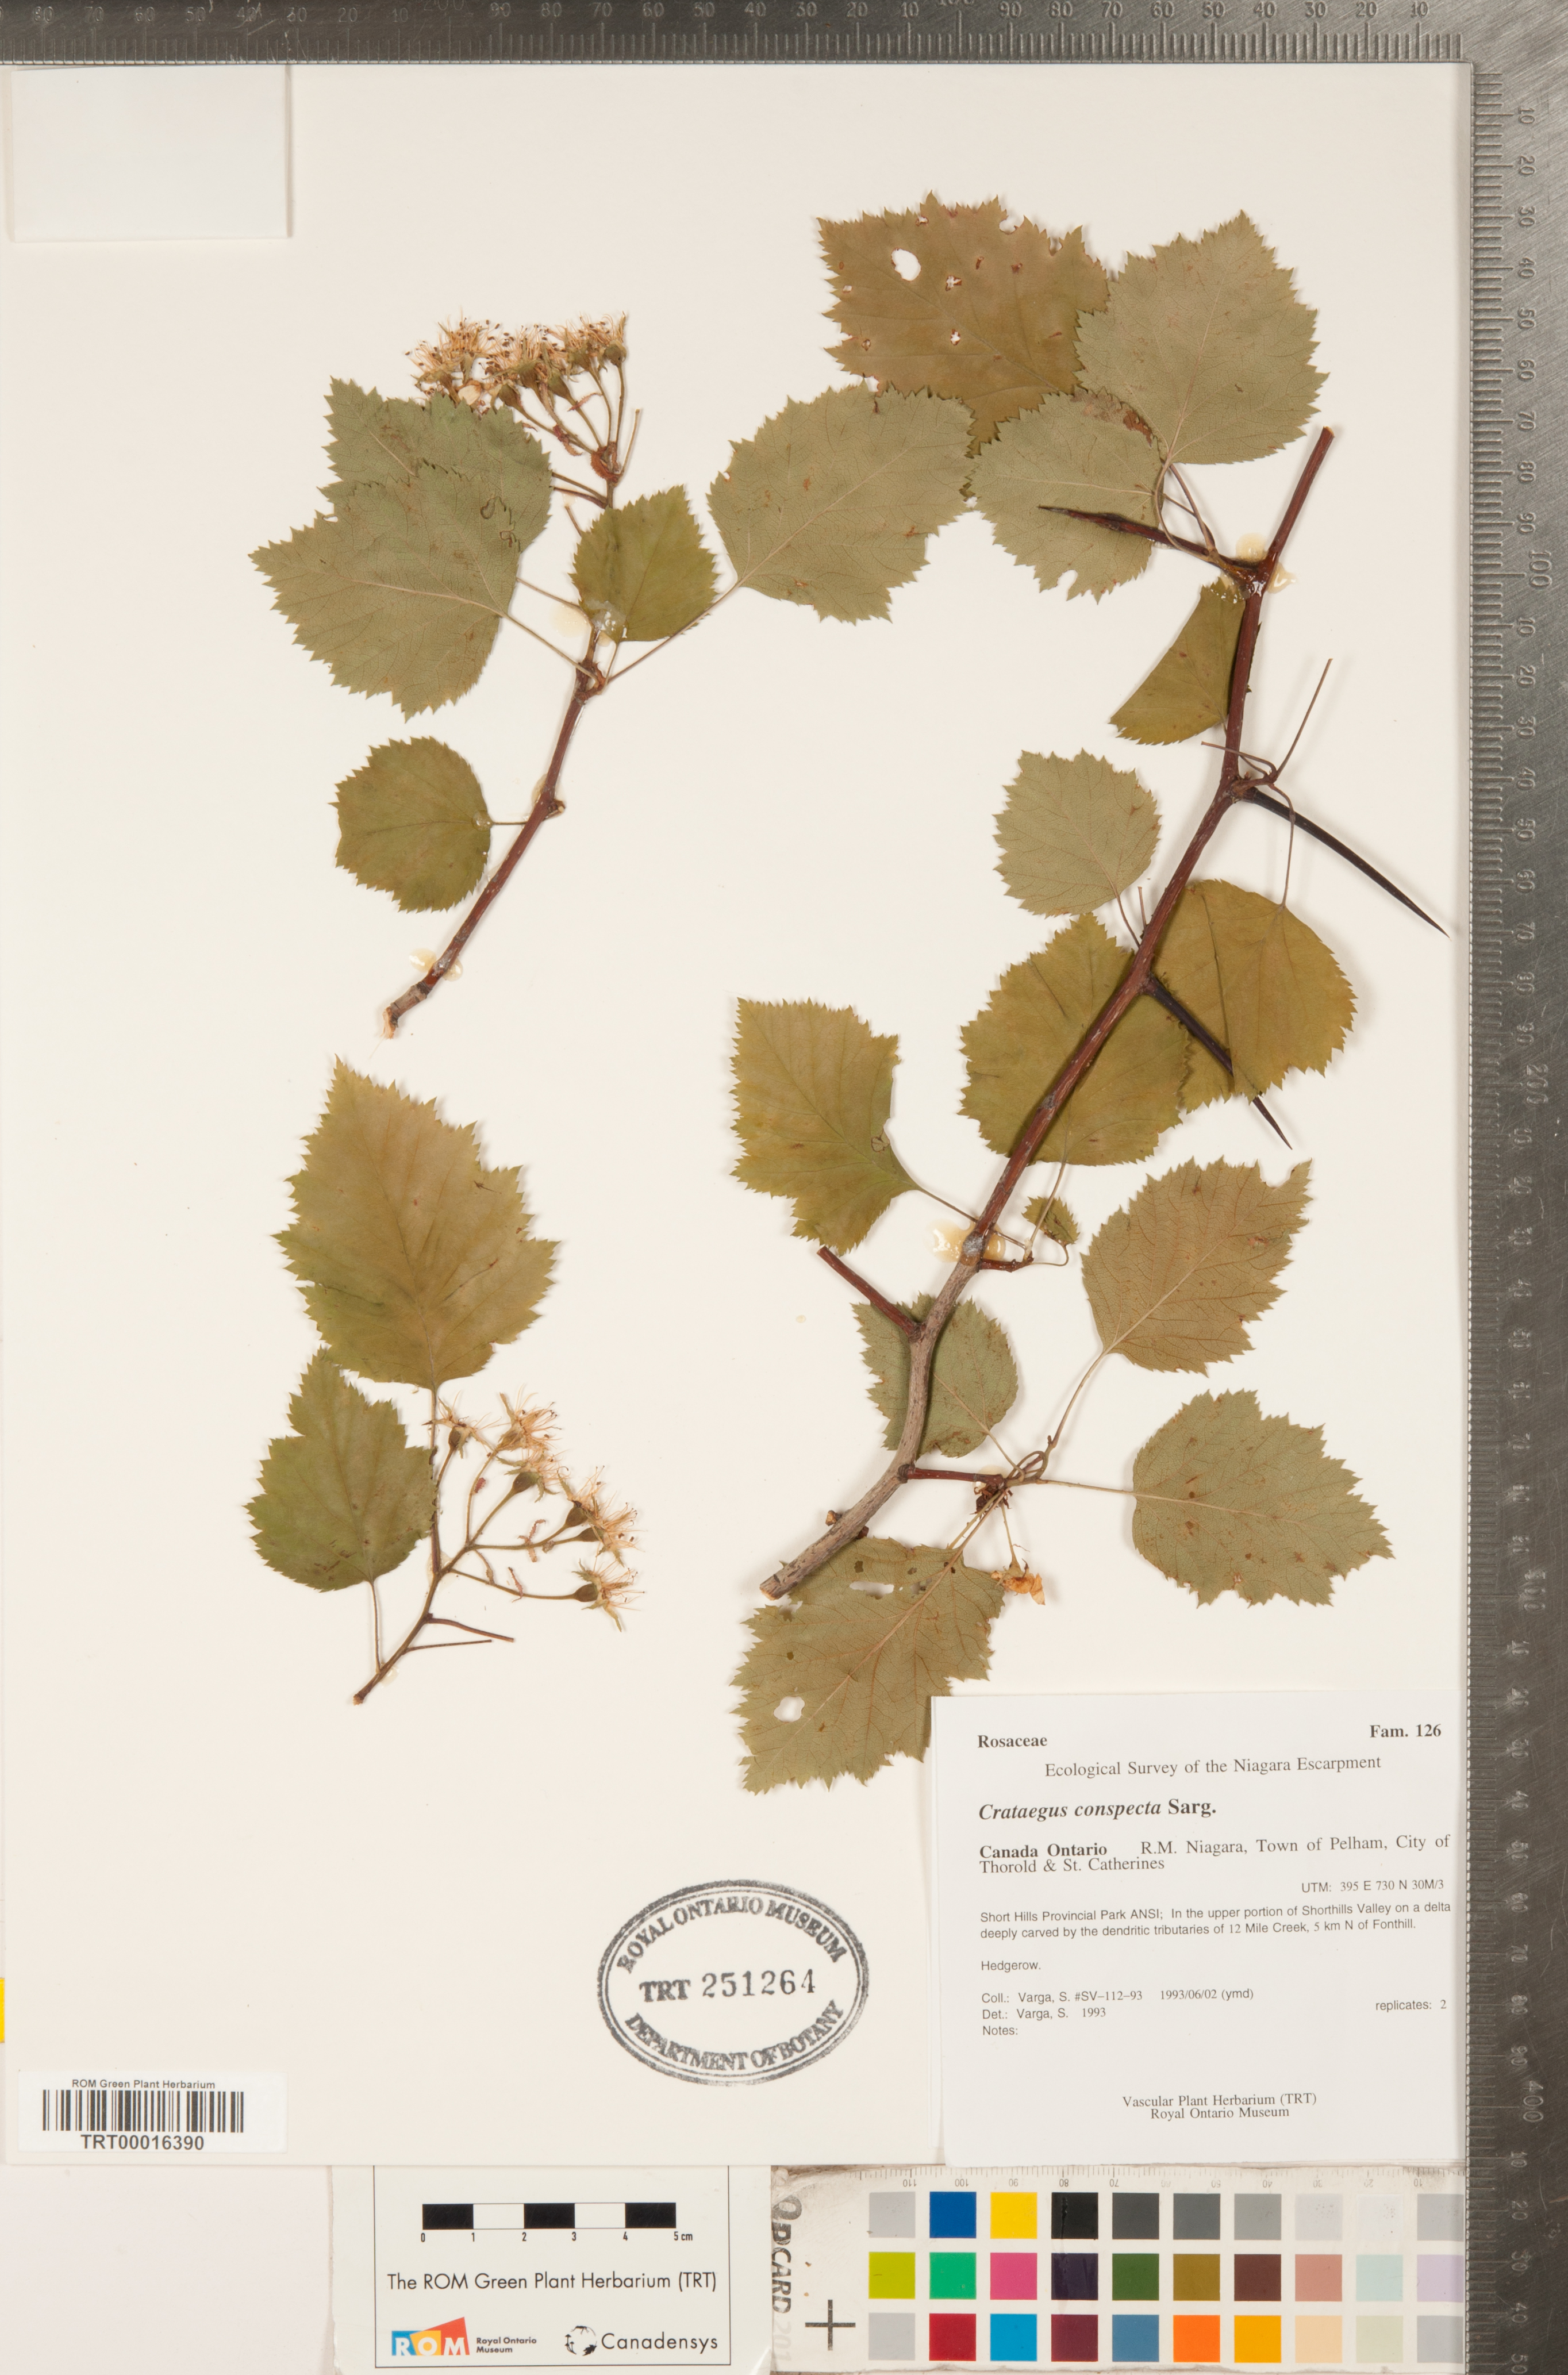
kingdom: Plantae
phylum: Tracheophyta
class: Magnoliopsida
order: Rosales
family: Rosaceae
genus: Crataegus
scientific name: Crataegus coccinioides
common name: Large-flowered cockspurthorn
